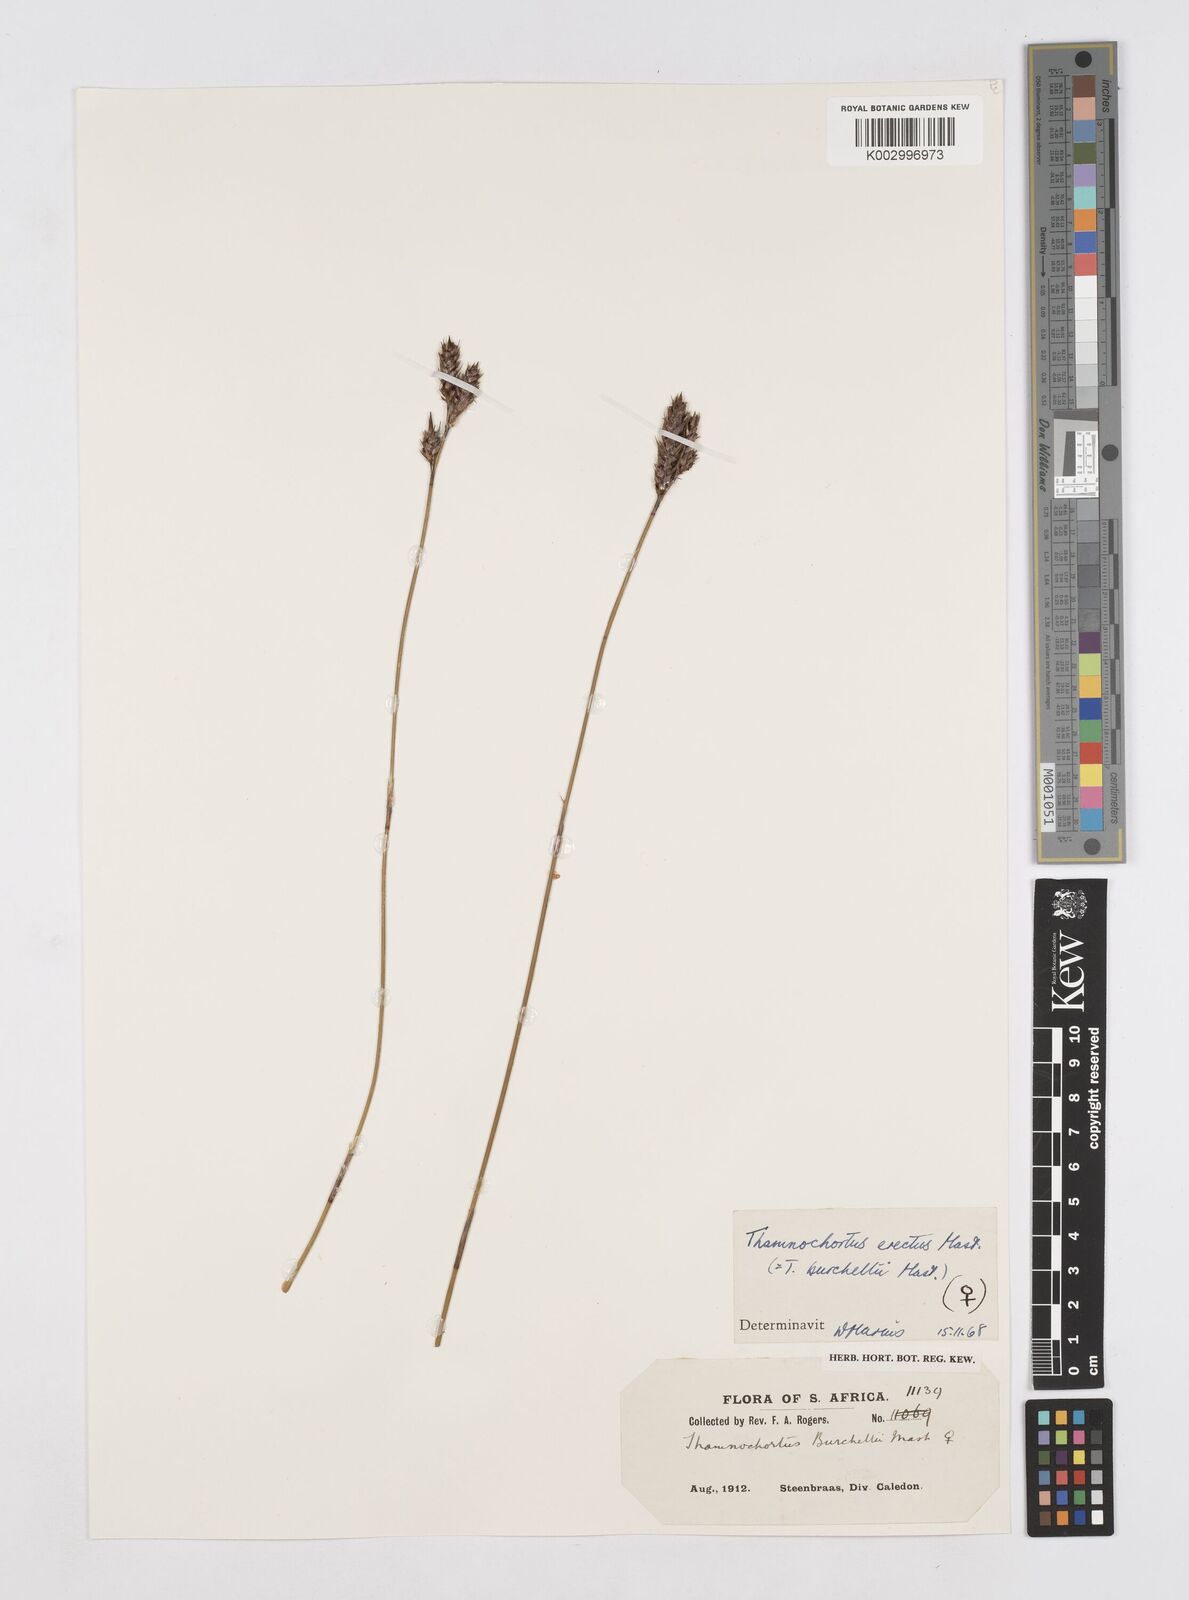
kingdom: Plantae
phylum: Tracheophyta
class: Liliopsida
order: Poales
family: Restionaceae
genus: Thamnochortus
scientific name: Thamnochortus erectus
